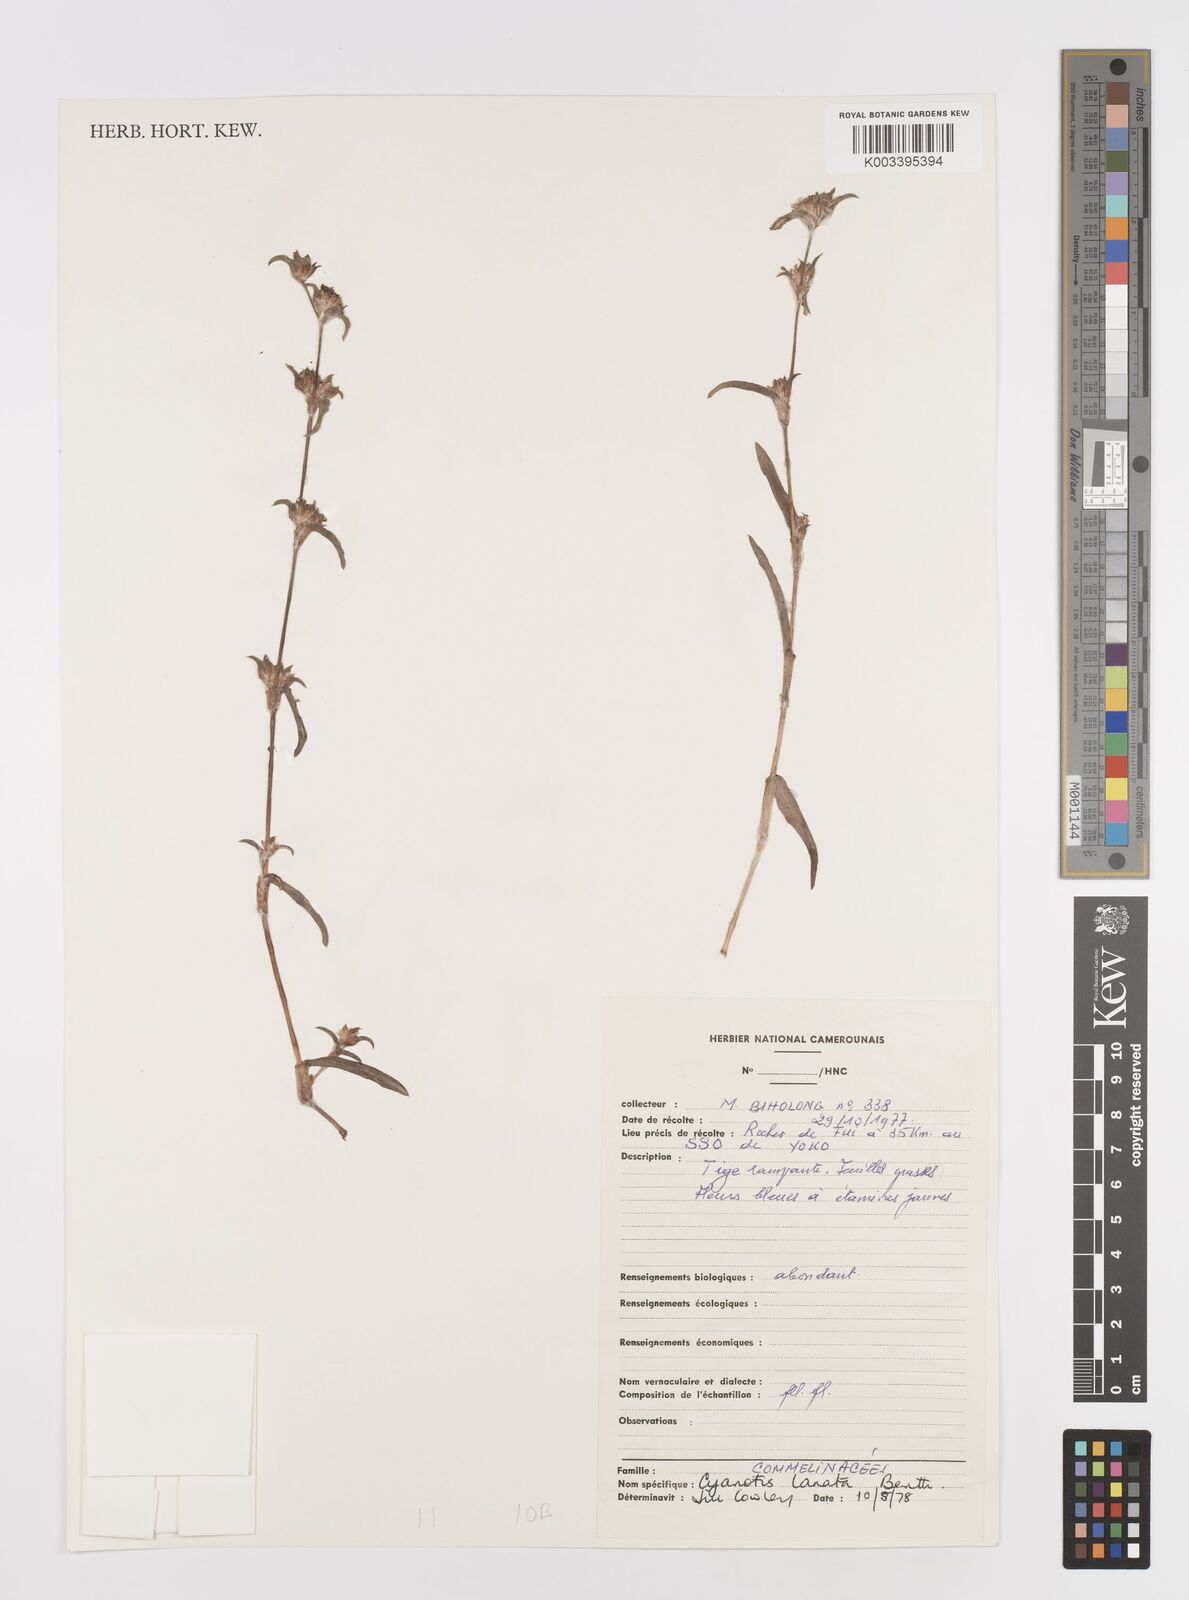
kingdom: Plantae
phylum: Tracheophyta
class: Liliopsida
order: Commelinales
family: Commelinaceae
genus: Cyanotis
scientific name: Cyanotis lanata
